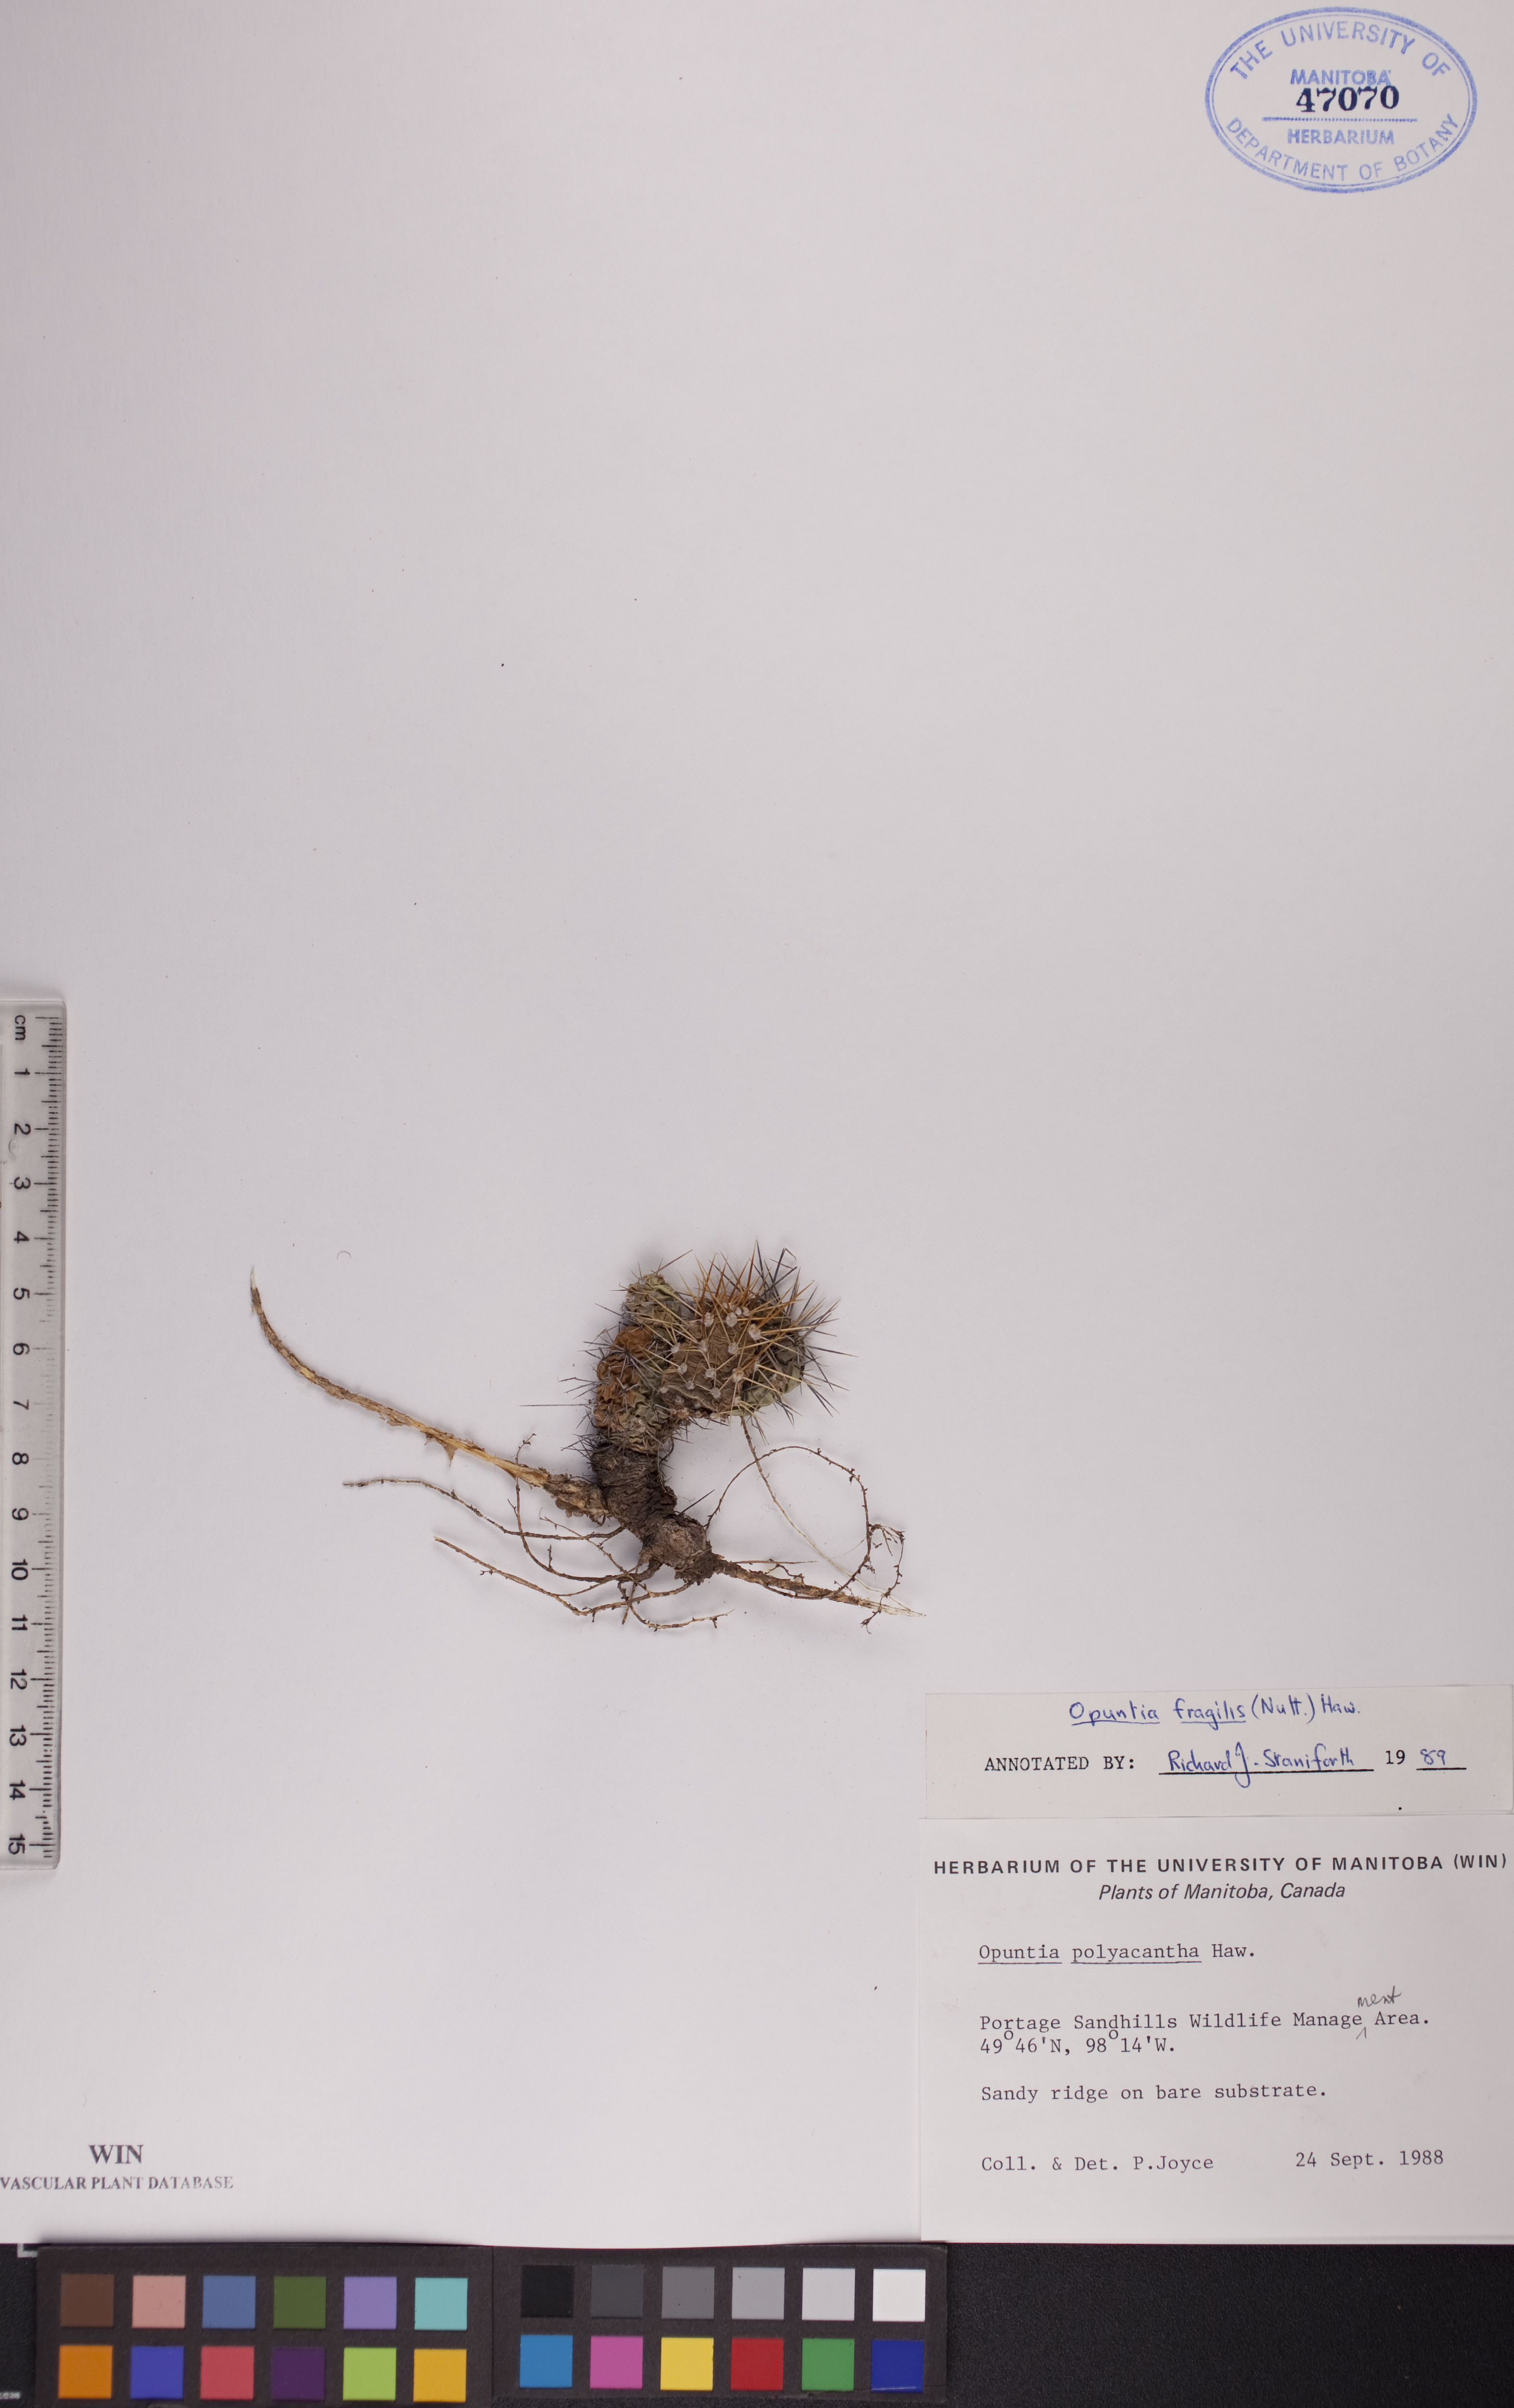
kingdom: Plantae
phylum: Tracheophyta
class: Magnoliopsida
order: Caryophyllales
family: Cactaceae
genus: Opuntia
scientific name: Opuntia fragilis
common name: Brittle cactus
